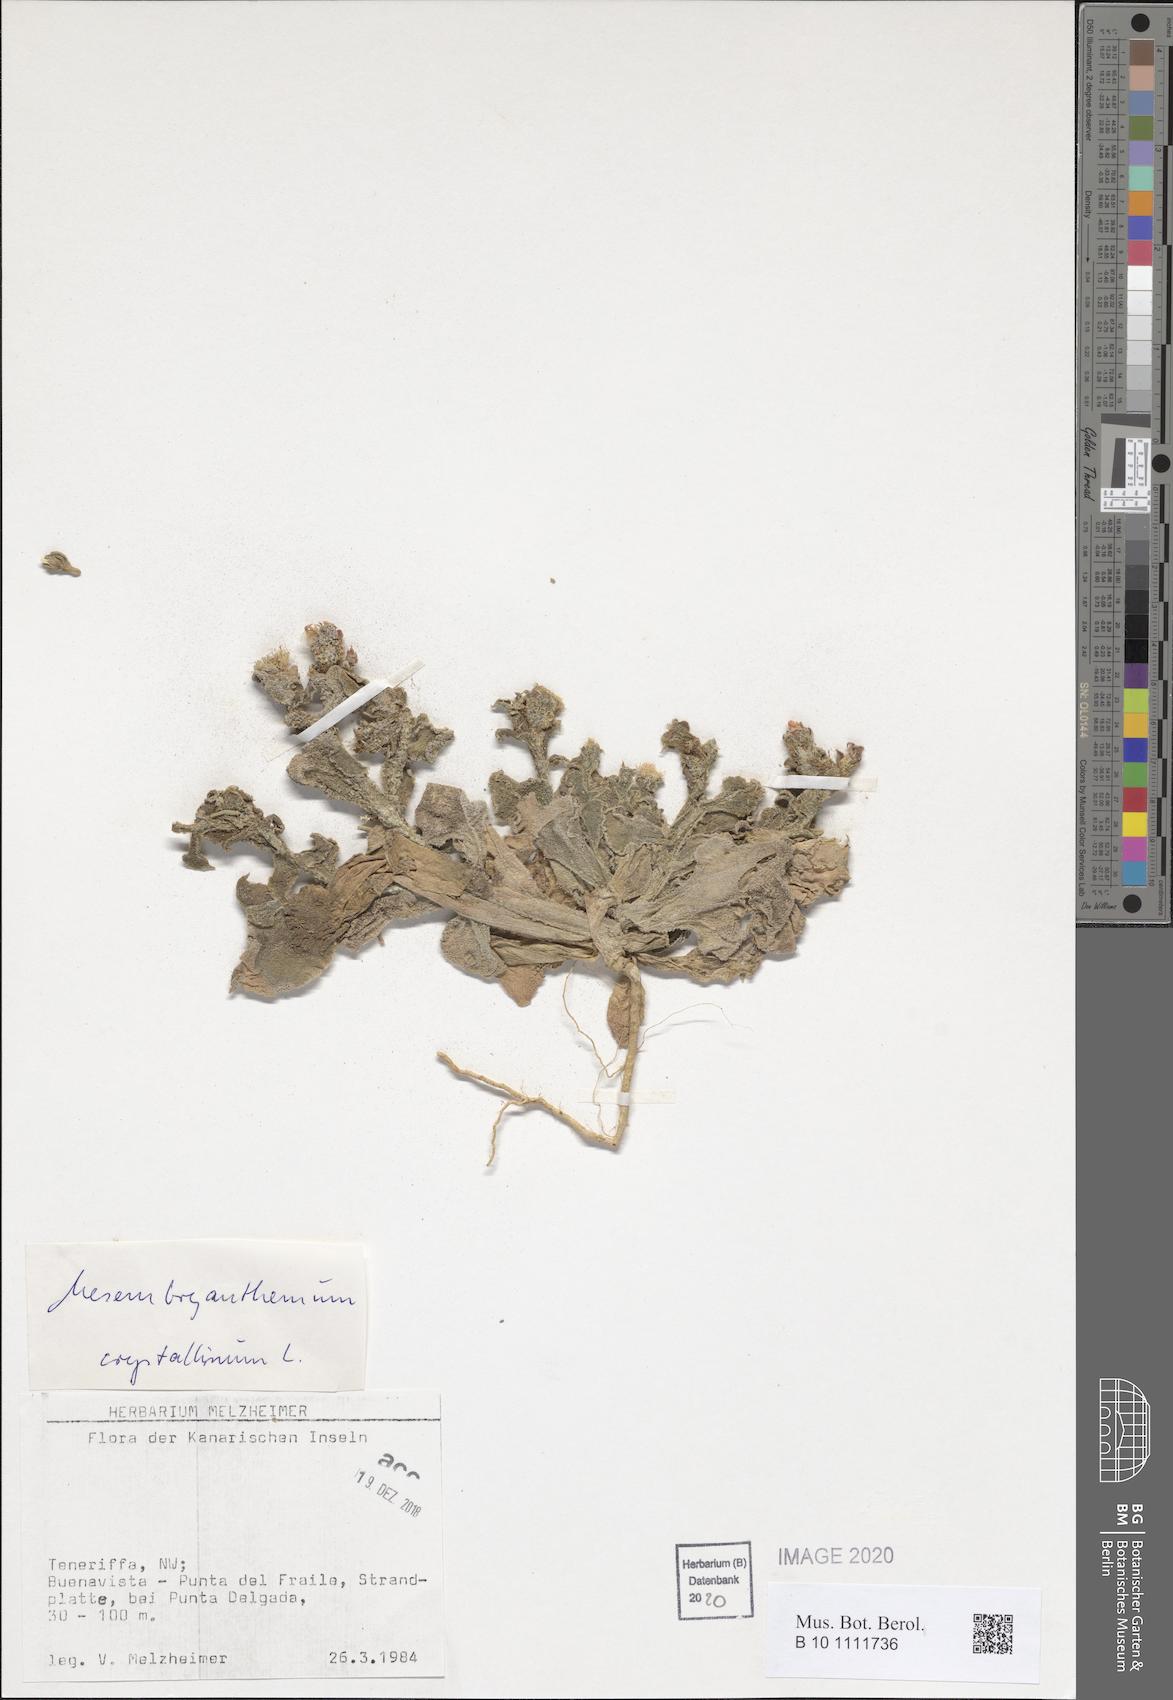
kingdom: Plantae
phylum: Tracheophyta
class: Magnoliopsida
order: Caryophyllales
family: Aizoaceae
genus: Mesembryanthemum
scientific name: Mesembryanthemum crystallinum
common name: Common iceplant
